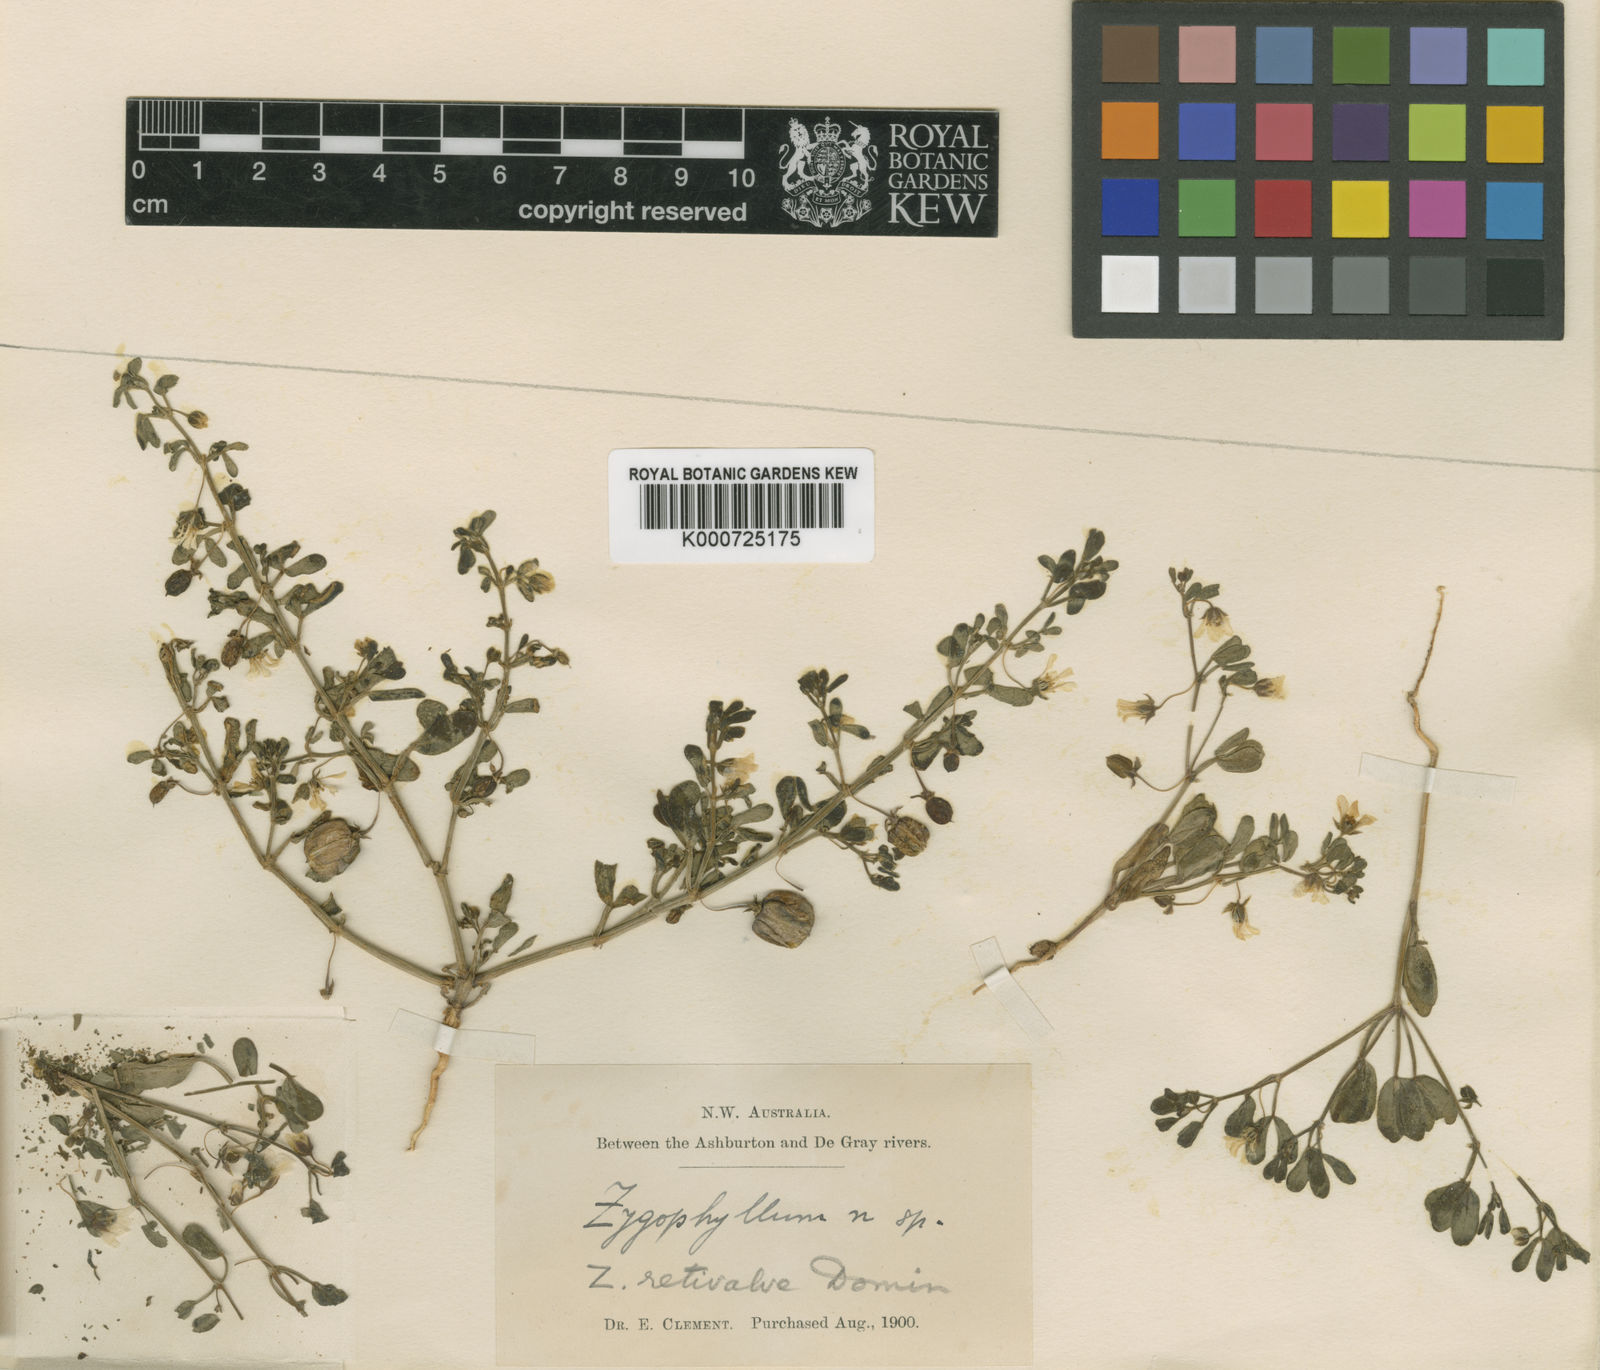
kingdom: Plantae
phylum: Tracheophyta
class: Magnoliopsida
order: Zygophyllales
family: Zygophyllaceae
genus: Roepera
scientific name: Roepera retivalvis
